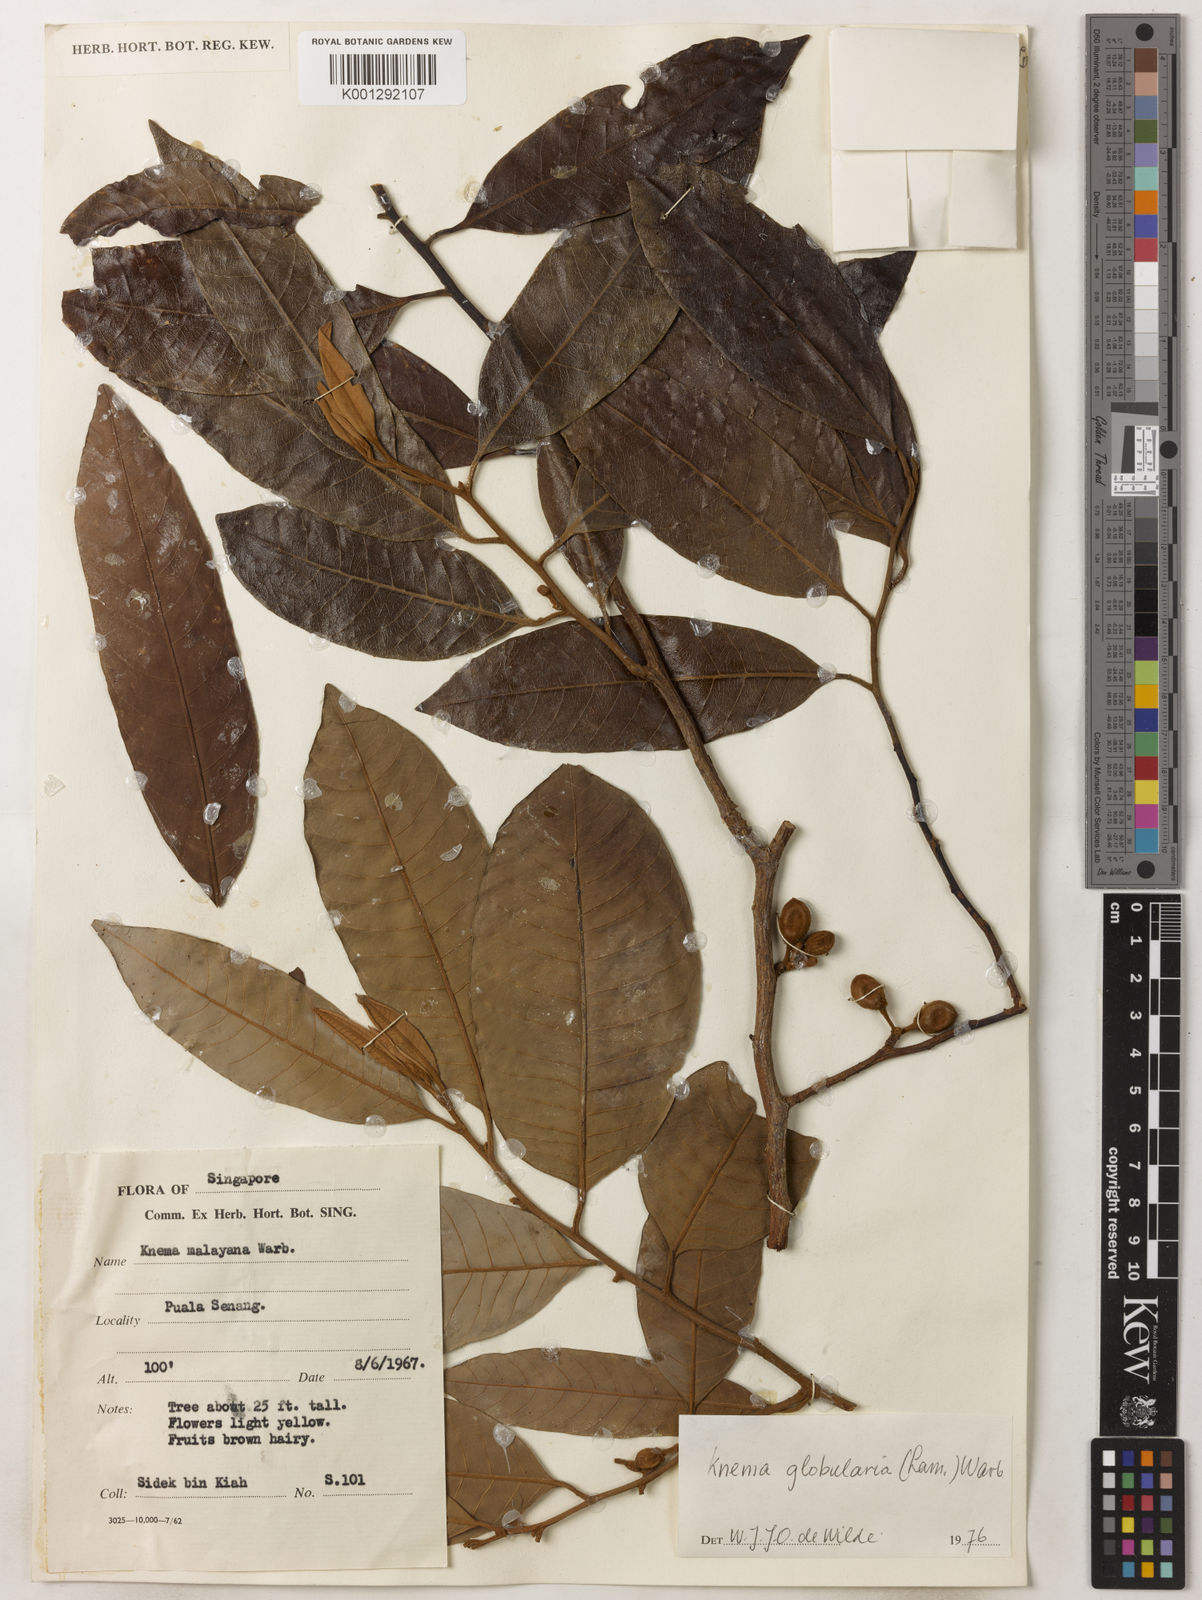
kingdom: Plantae
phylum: Tracheophyta
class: Magnoliopsida
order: Magnoliales
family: Myristicaceae
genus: Knema
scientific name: Knema globularia
